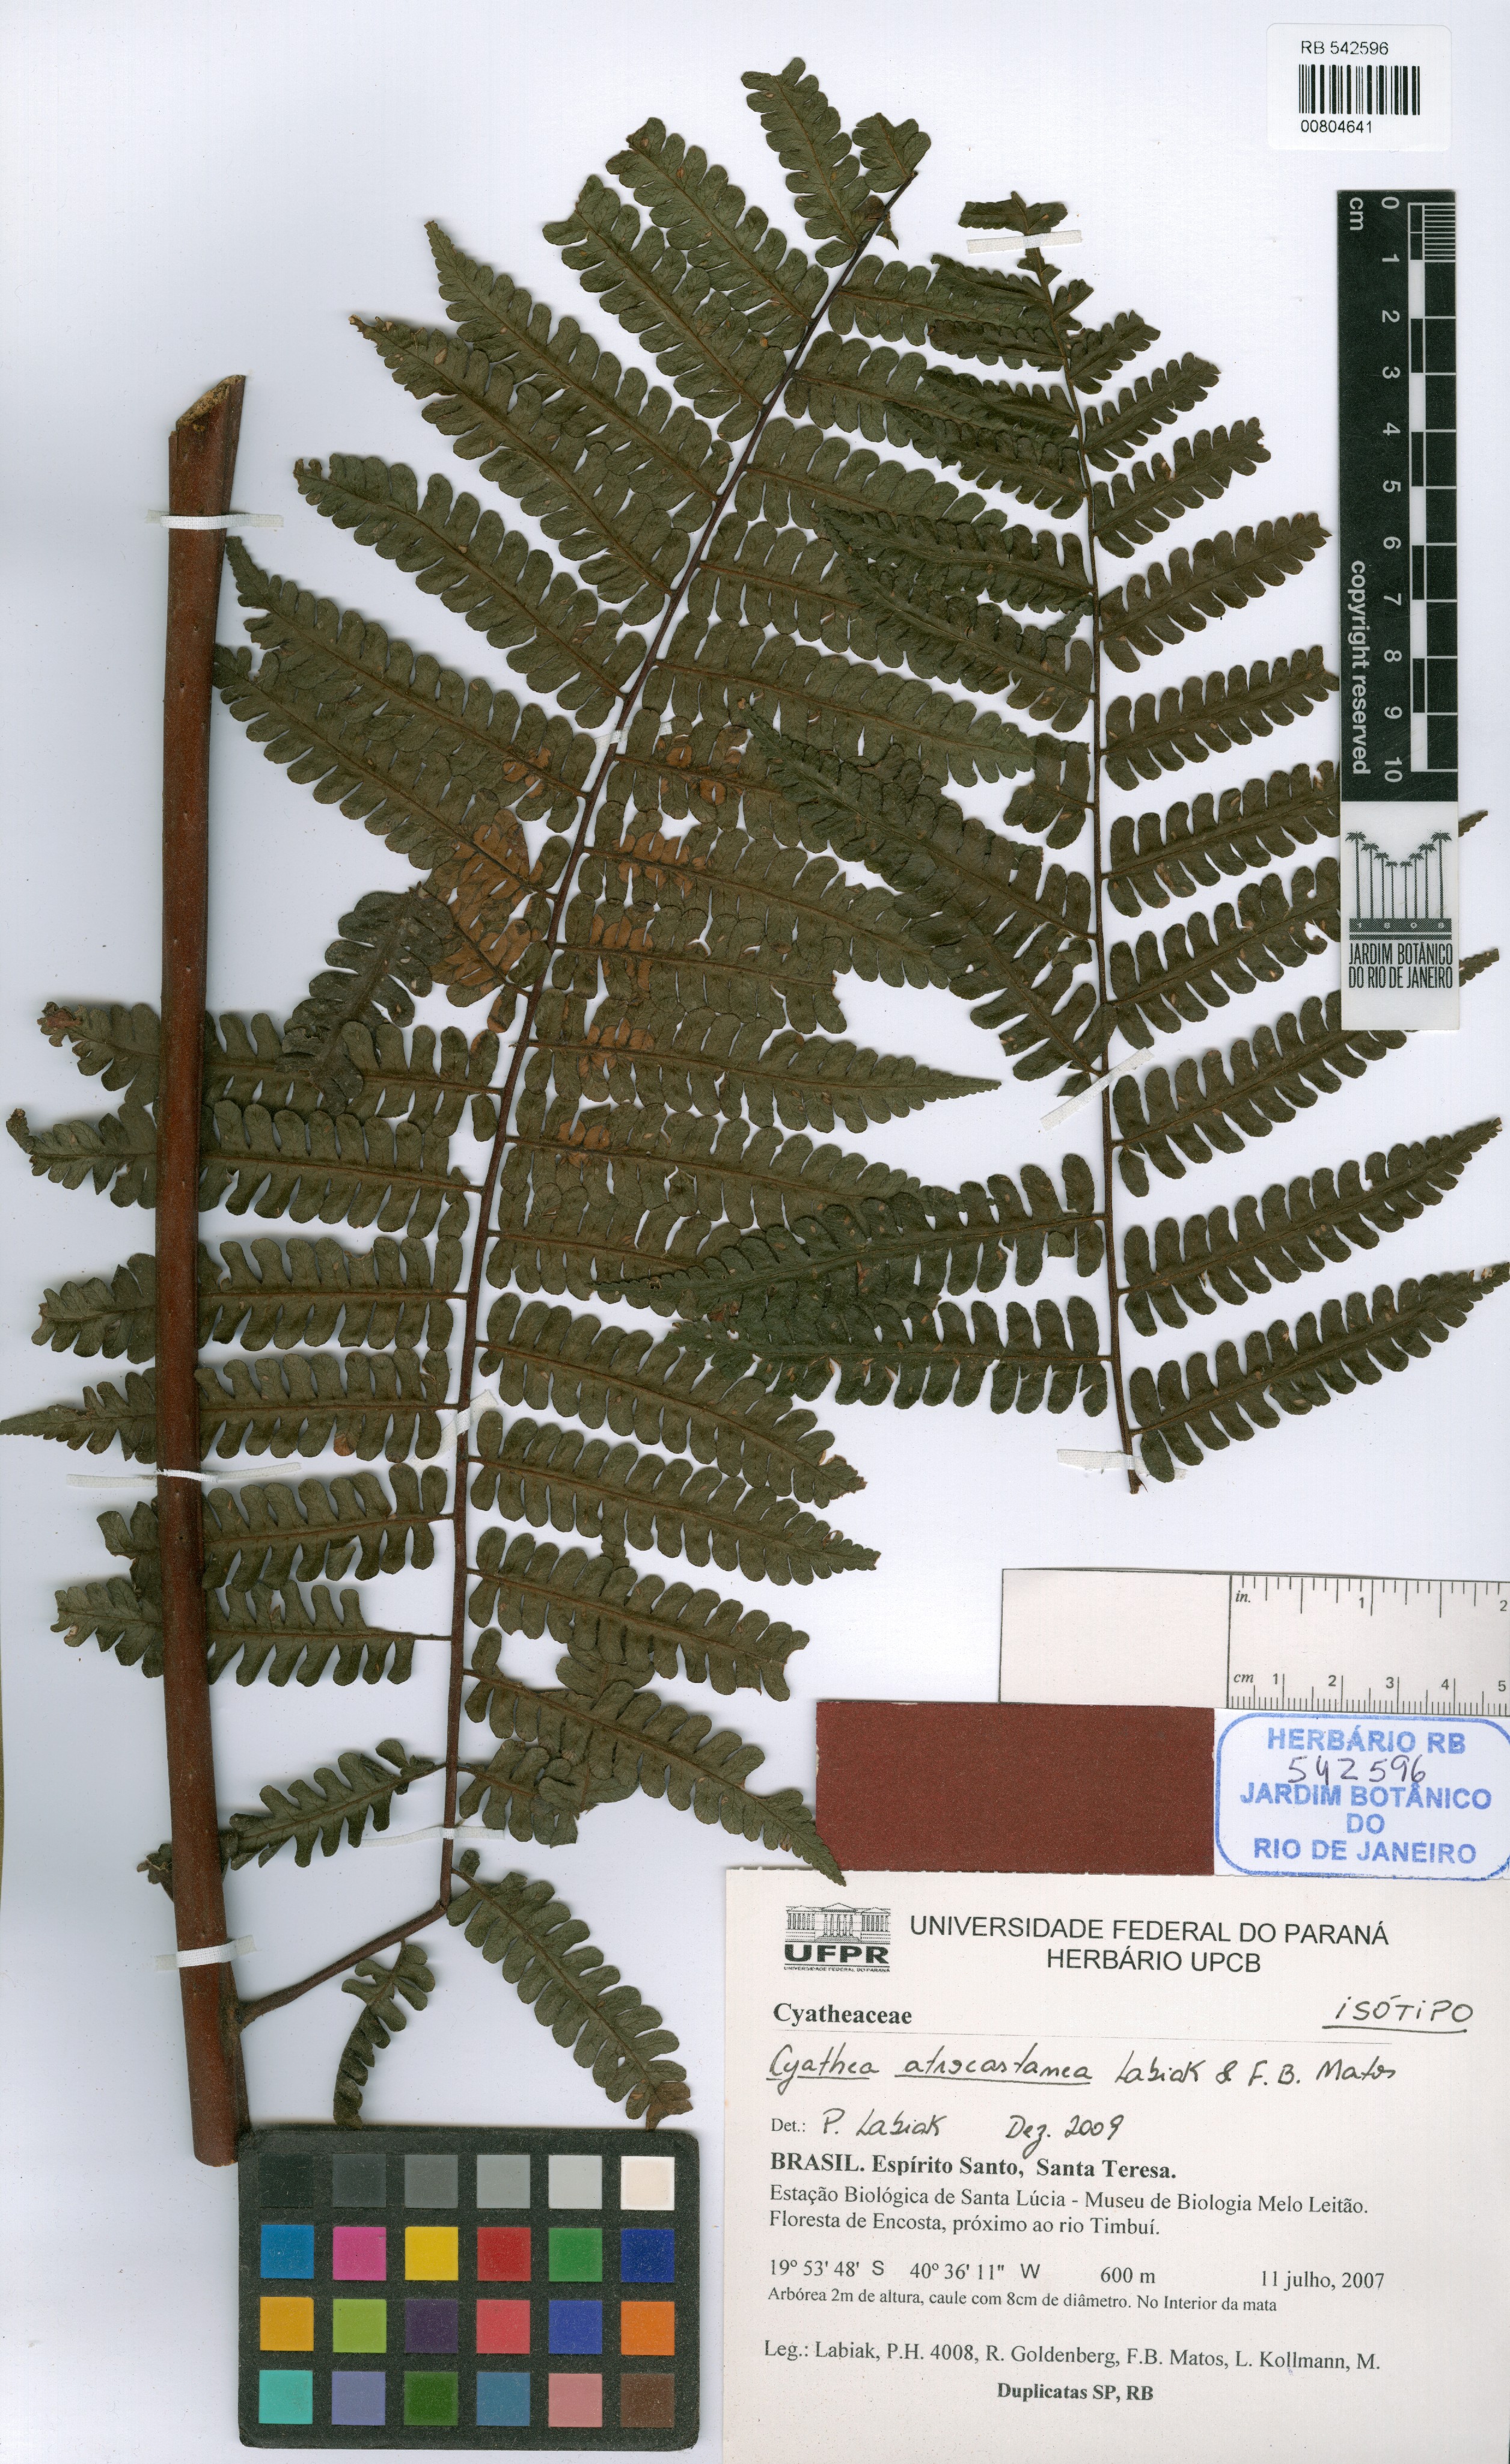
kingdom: Plantae
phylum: Tracheophyta
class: Polypodiopsida
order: Cyatheales
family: Cyatheaceae
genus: Cyathea
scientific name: Cyathea atrocastanea
